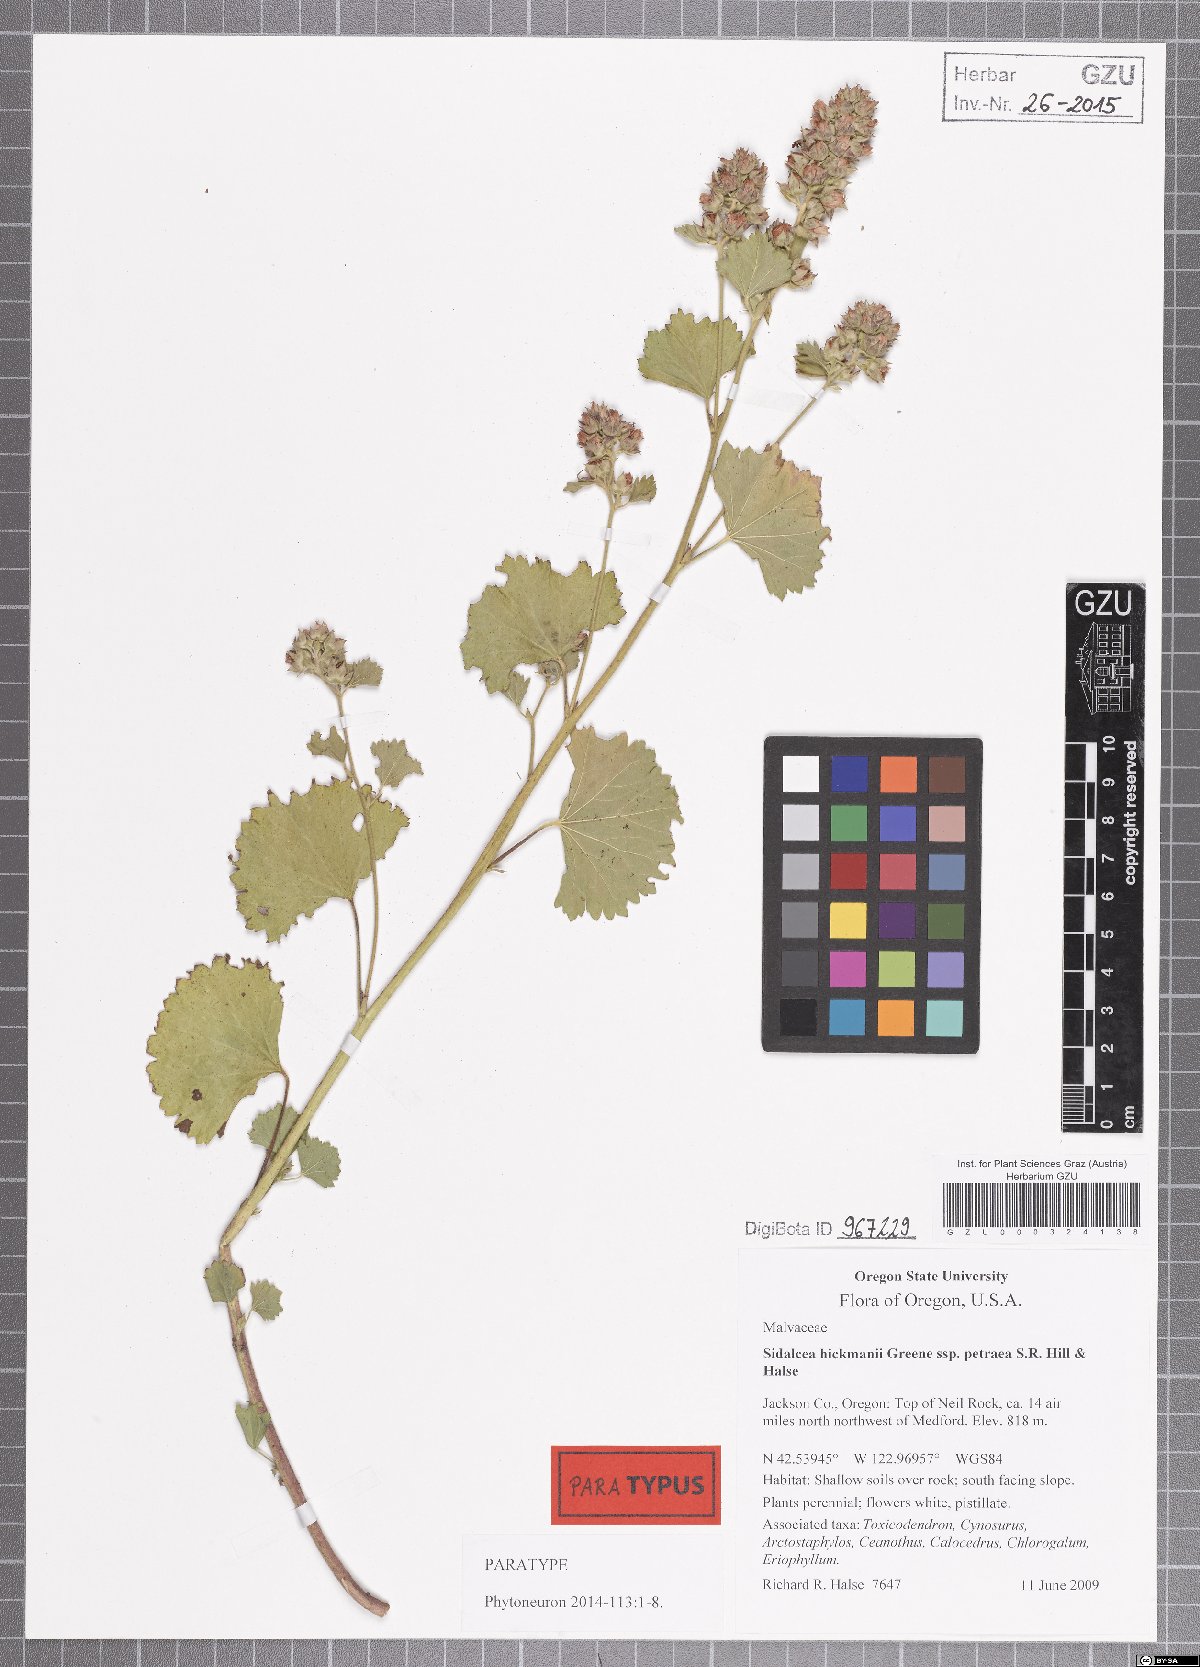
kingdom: Plantae
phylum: Tracheophyta
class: Magnoliopsida
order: Malvales
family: Malvaceae
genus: Sidalcea
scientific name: Sidalcea hickmanii
